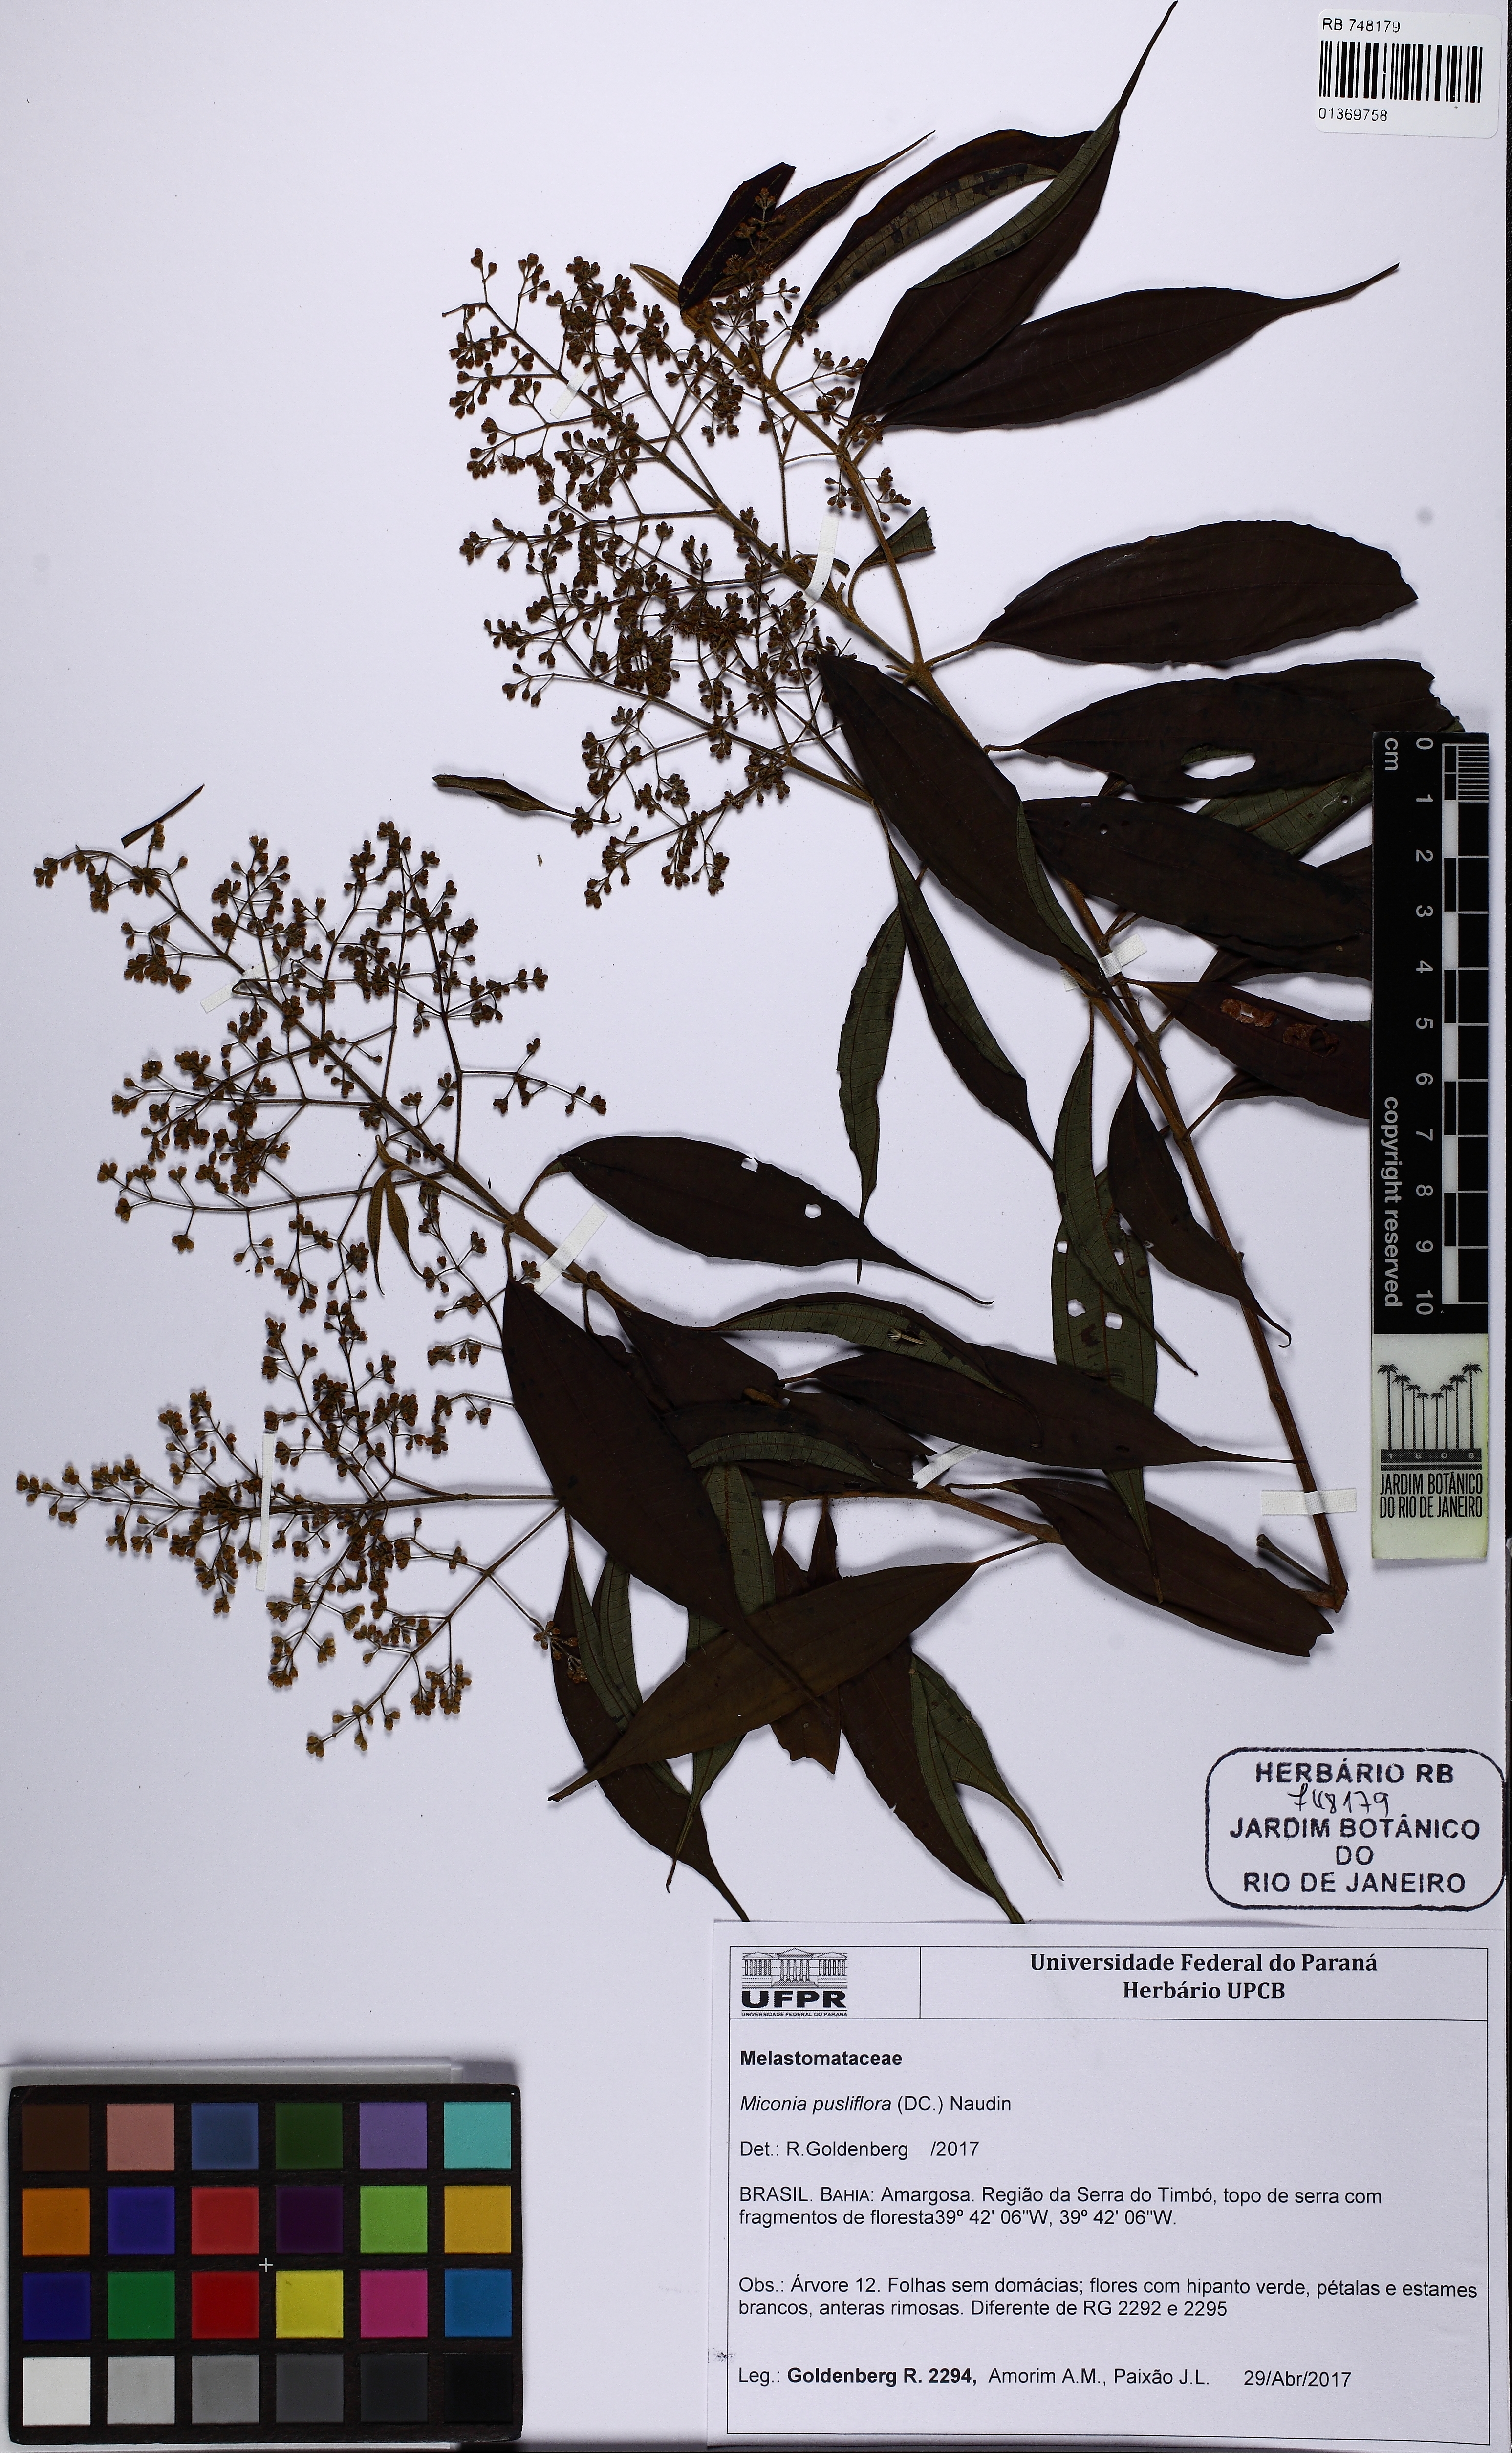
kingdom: Plantae
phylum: Tracheophyta
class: Magnoliopsida
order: Myrtales
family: Melastomataceae
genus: Miconia
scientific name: Miconia pusilliflora
